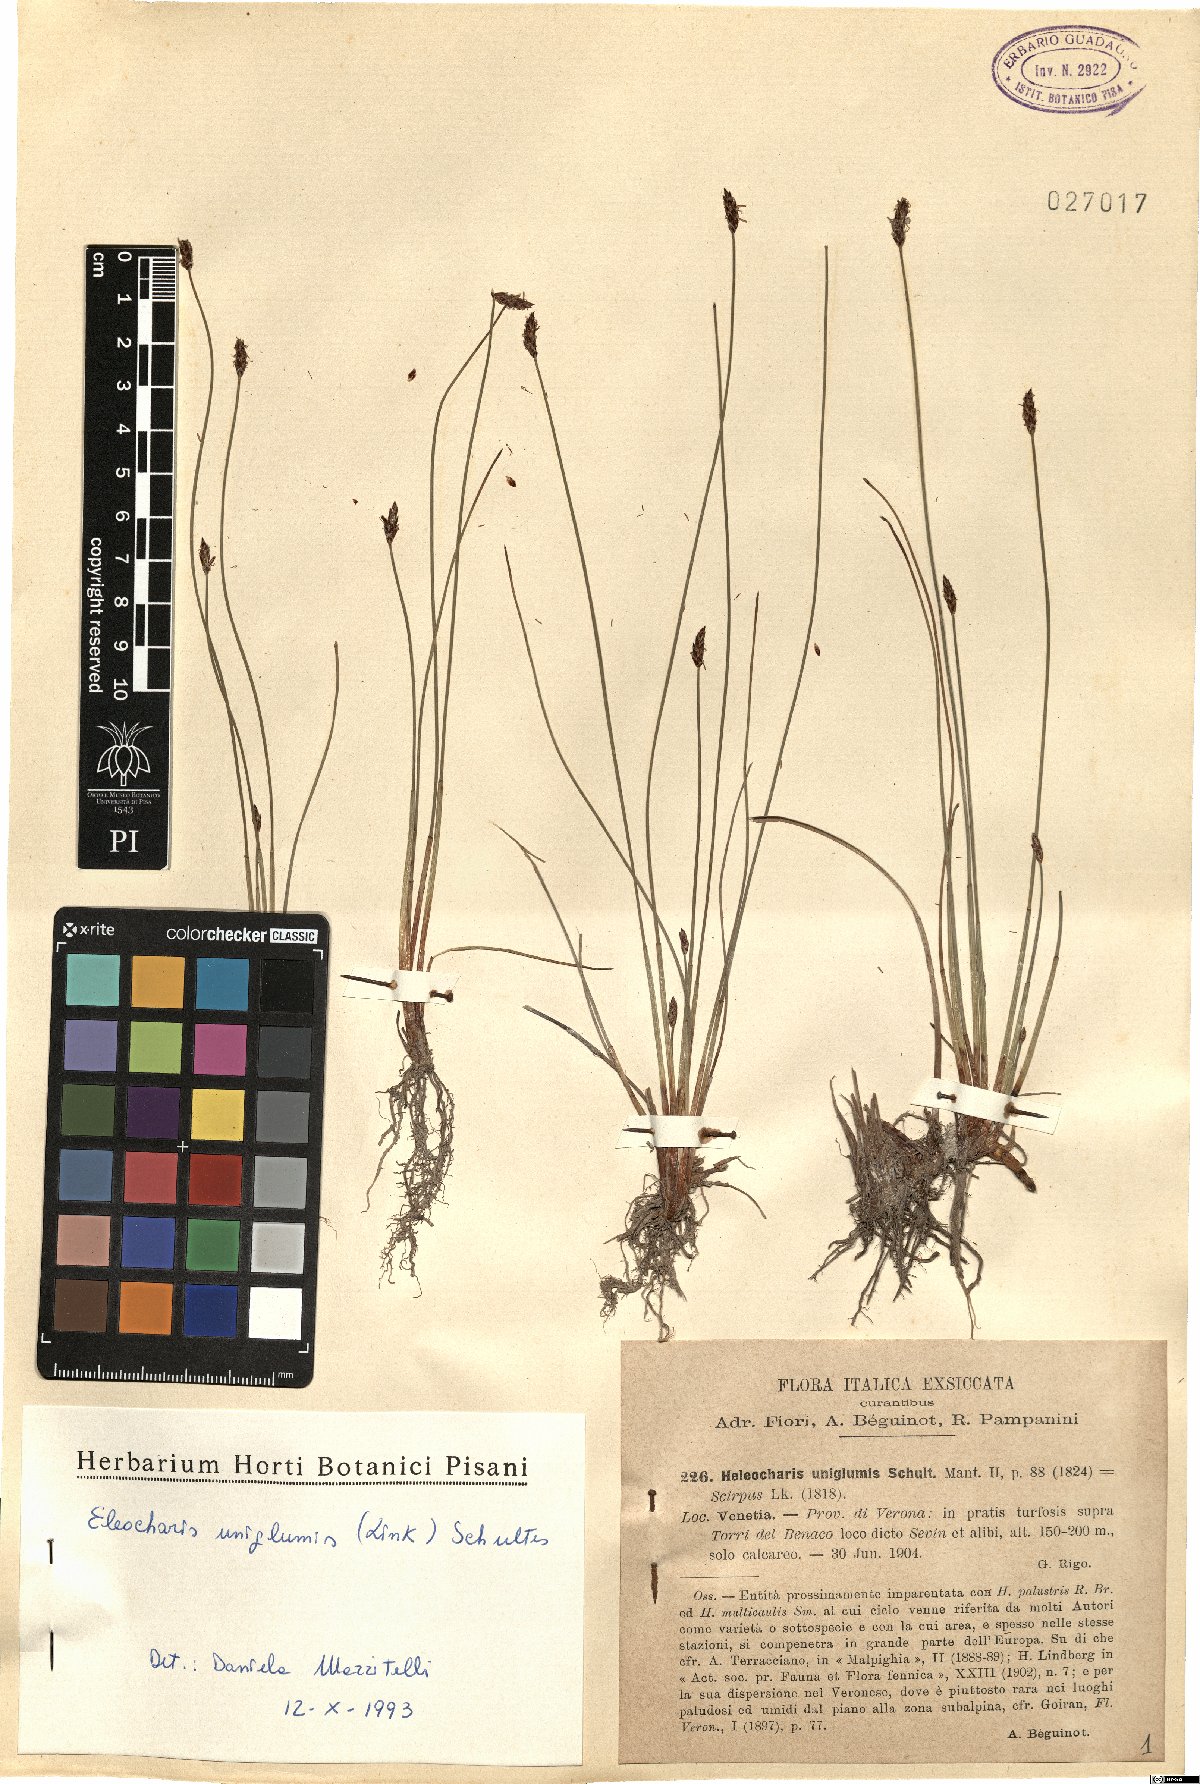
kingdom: Plantae
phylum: Tracheophyta
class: Liliopsida
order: Poales
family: Cyperaceae
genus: Eleocharis
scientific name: Eleocharis uniglumis
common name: Slender spike-rush
